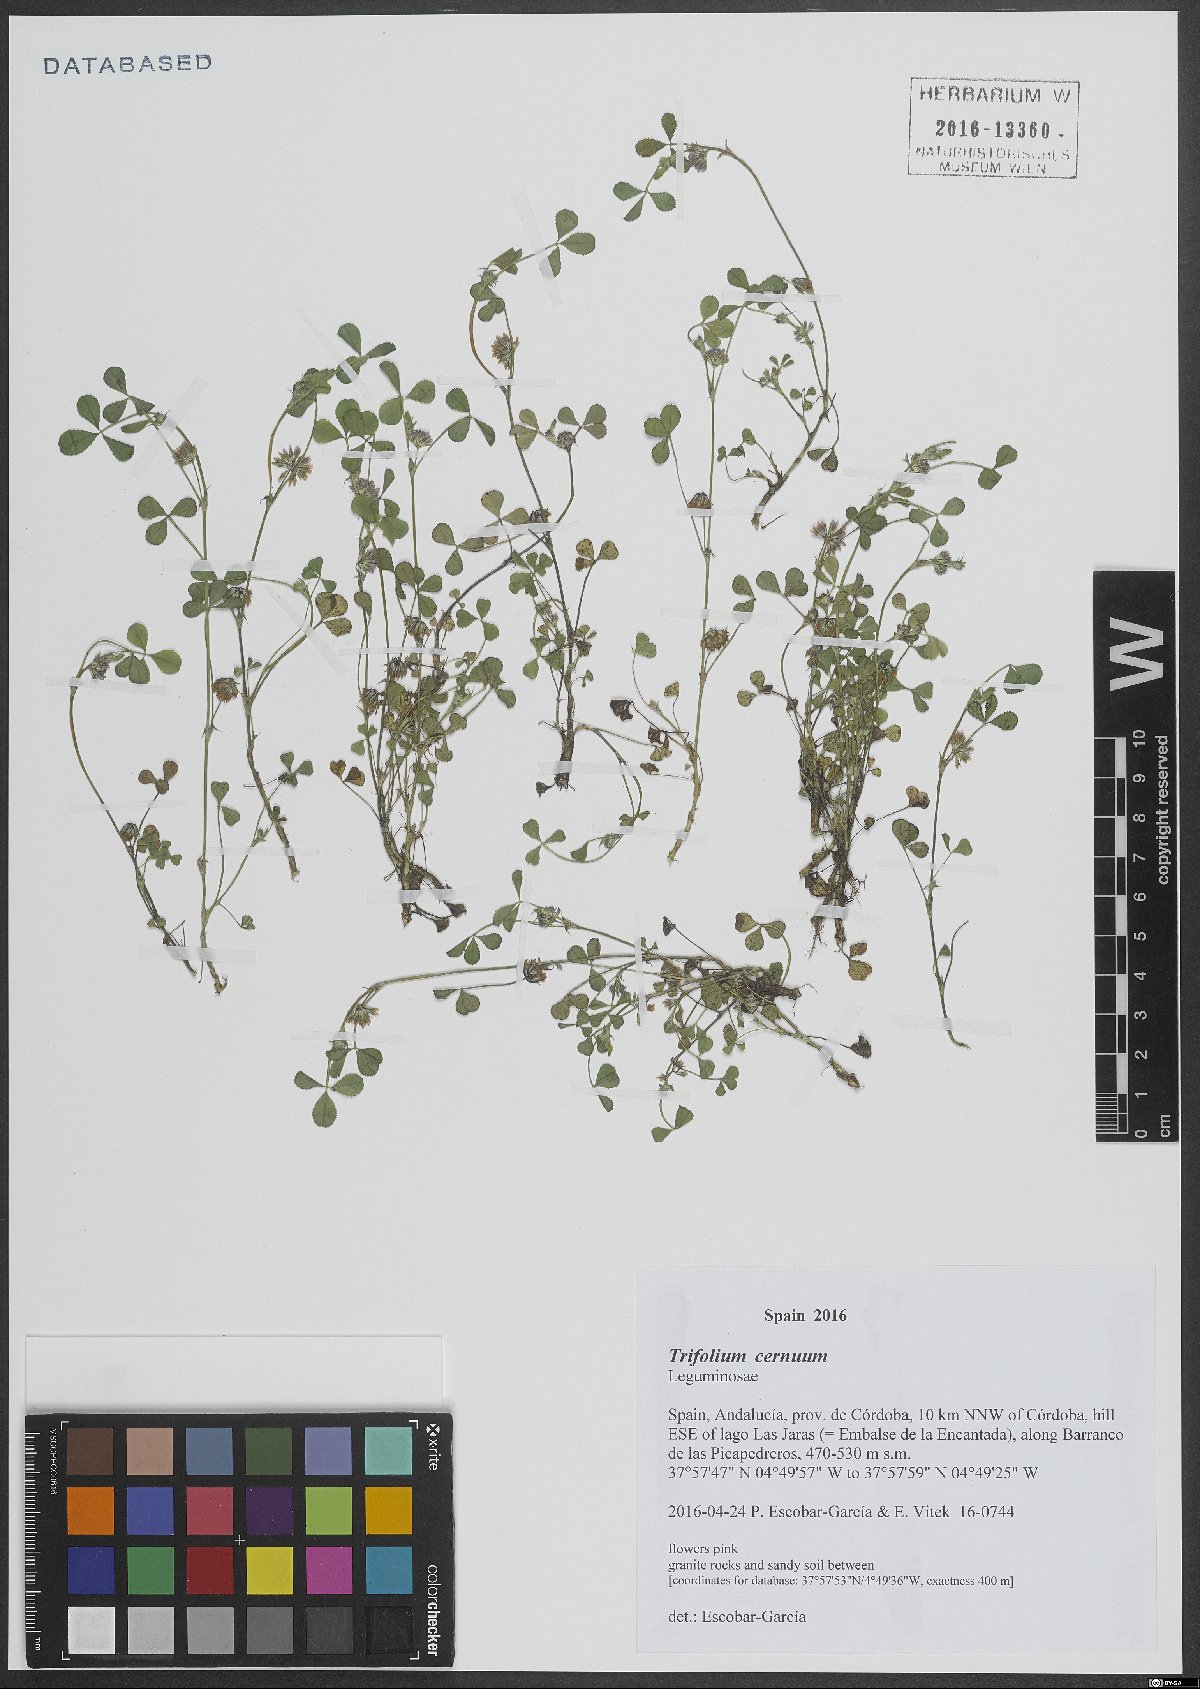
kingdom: Plantae
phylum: Tracheophyta
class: Magnoliopsida
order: Fabales
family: Fabaceae
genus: Trifolium
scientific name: Trifolium cernuum
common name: Nodding clover
